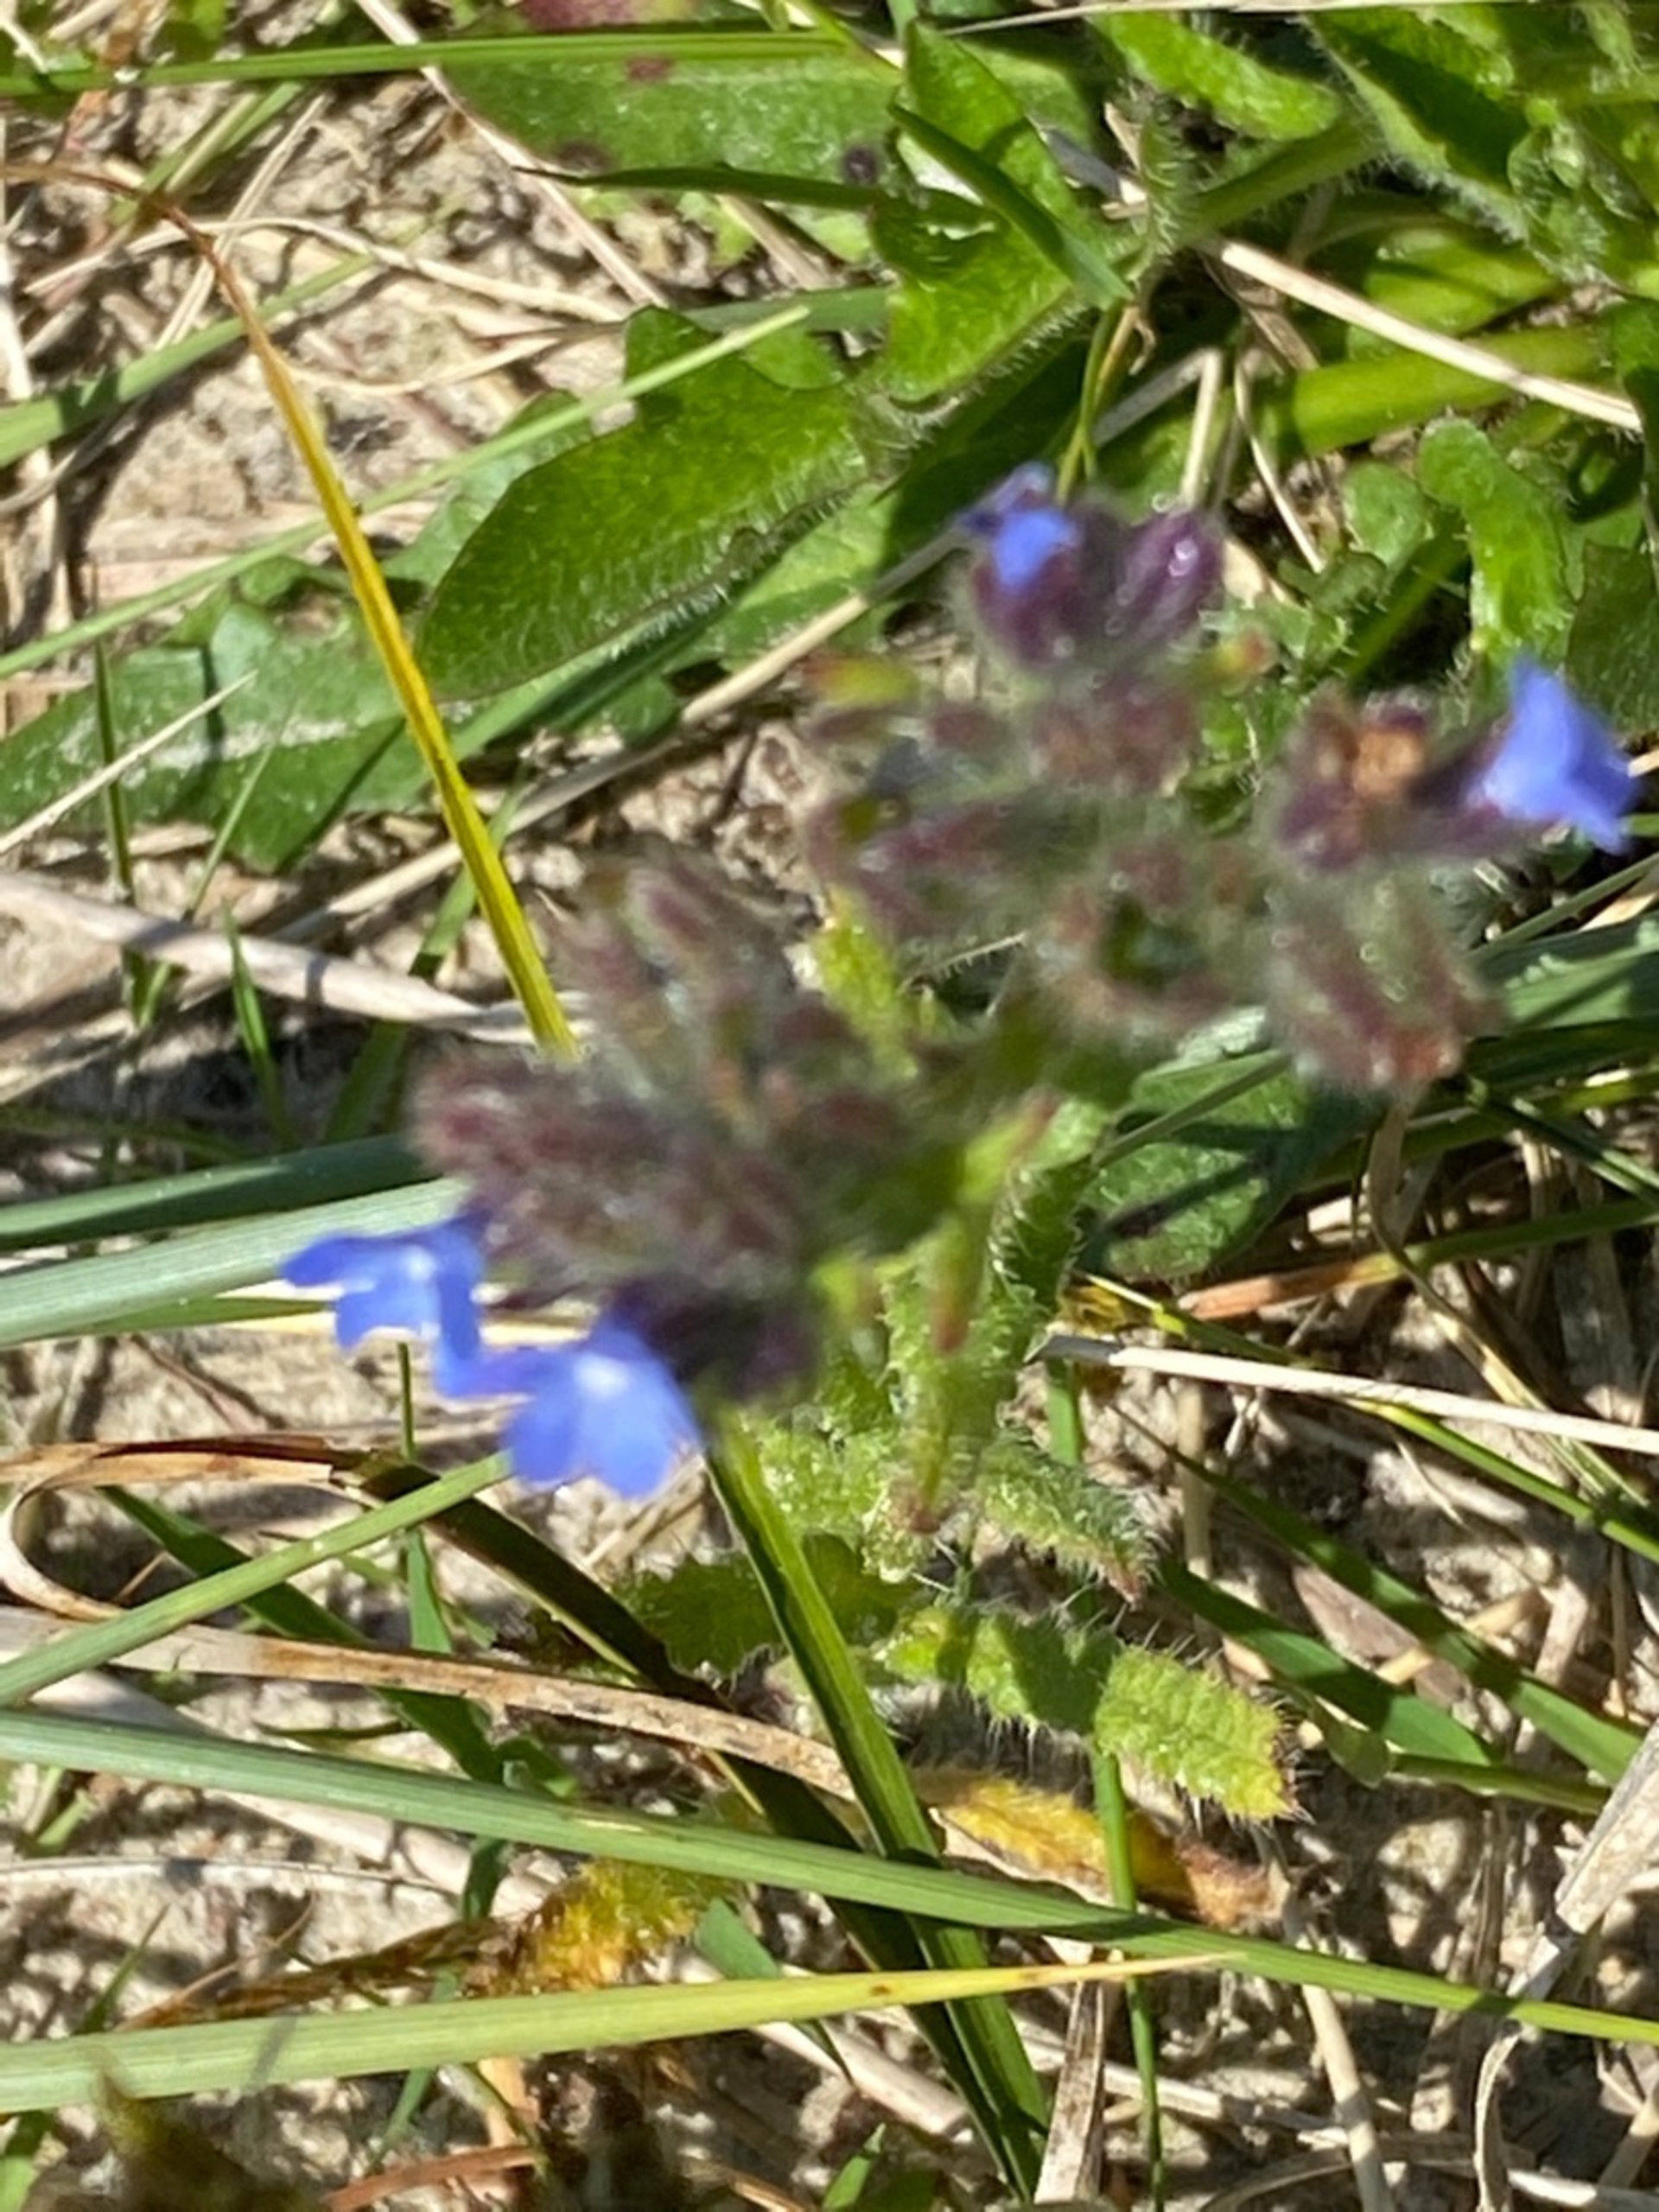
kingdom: Plantae
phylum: Tracheophyta
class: Magnoliopsida
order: Boraginales
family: Boraginaceae
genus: Lycopsis
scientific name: Lycopsis arvensis
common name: Krumhals
